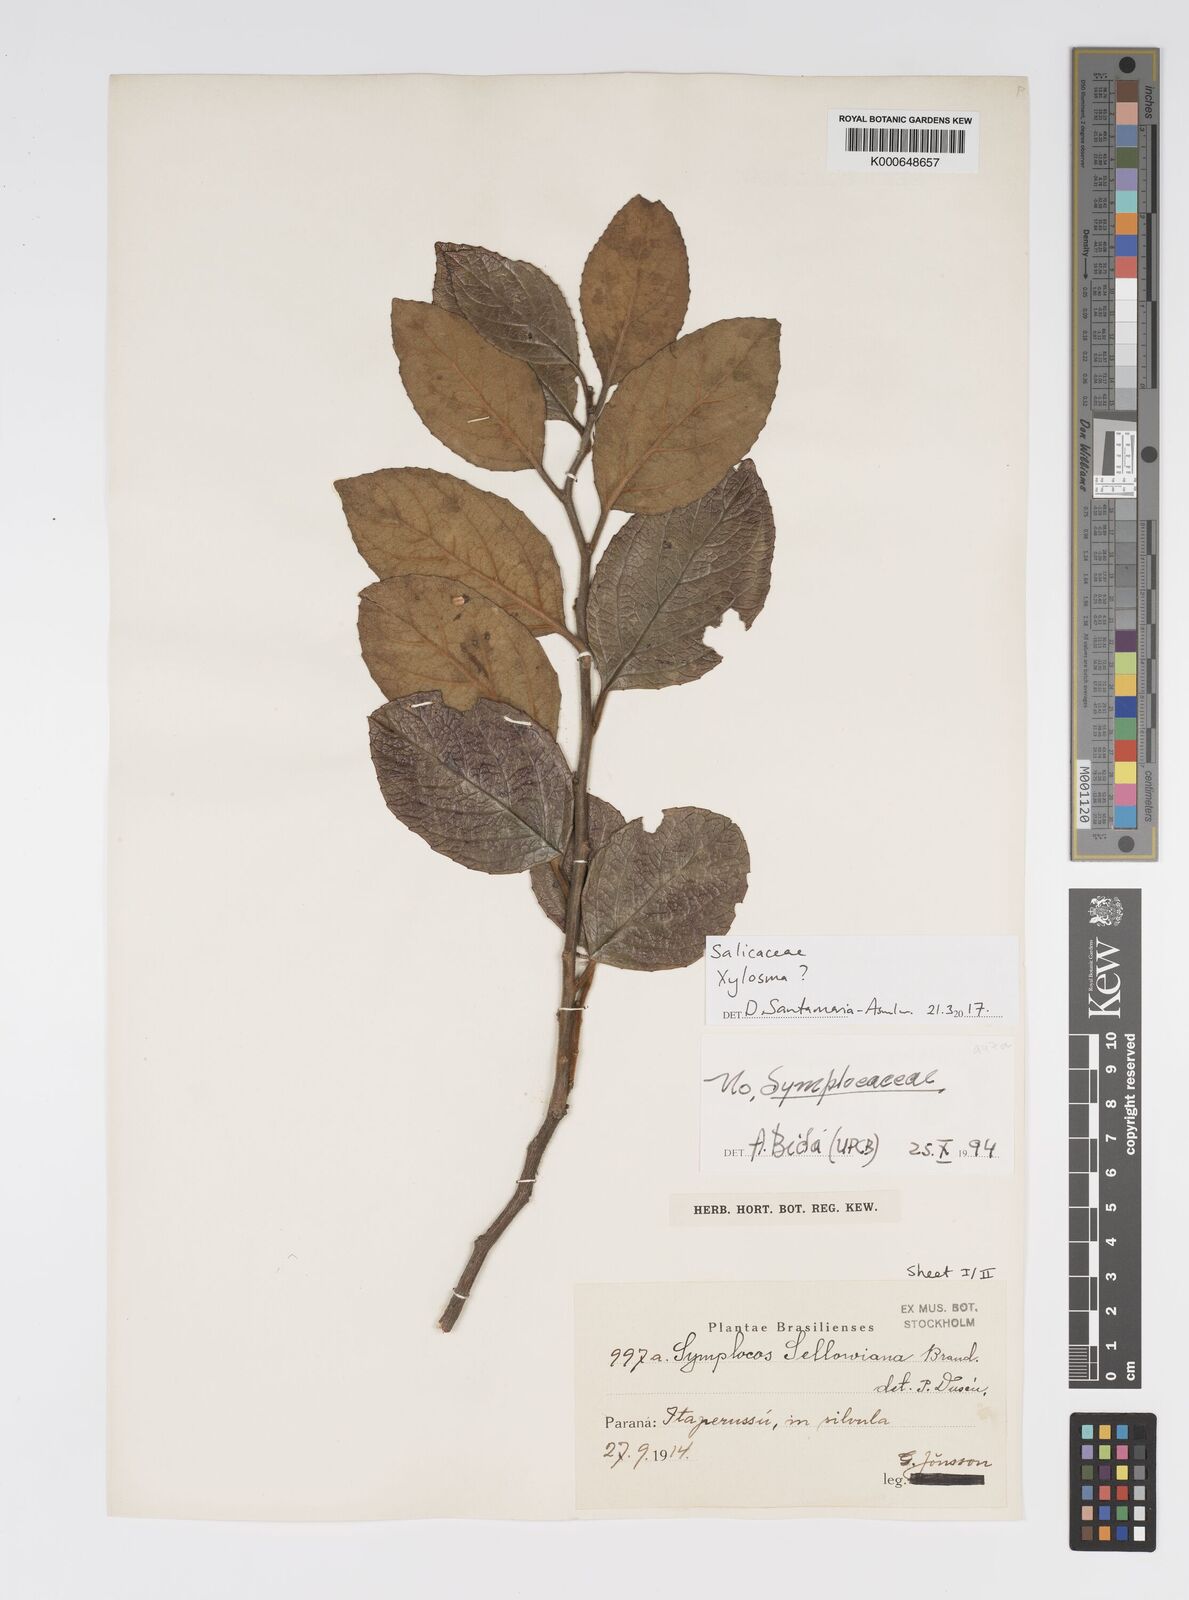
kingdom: Plantae
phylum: Tracheophyta
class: Magnoliopsida
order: Malpighiales
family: Salicaceae
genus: Xylosma
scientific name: Xylosma
